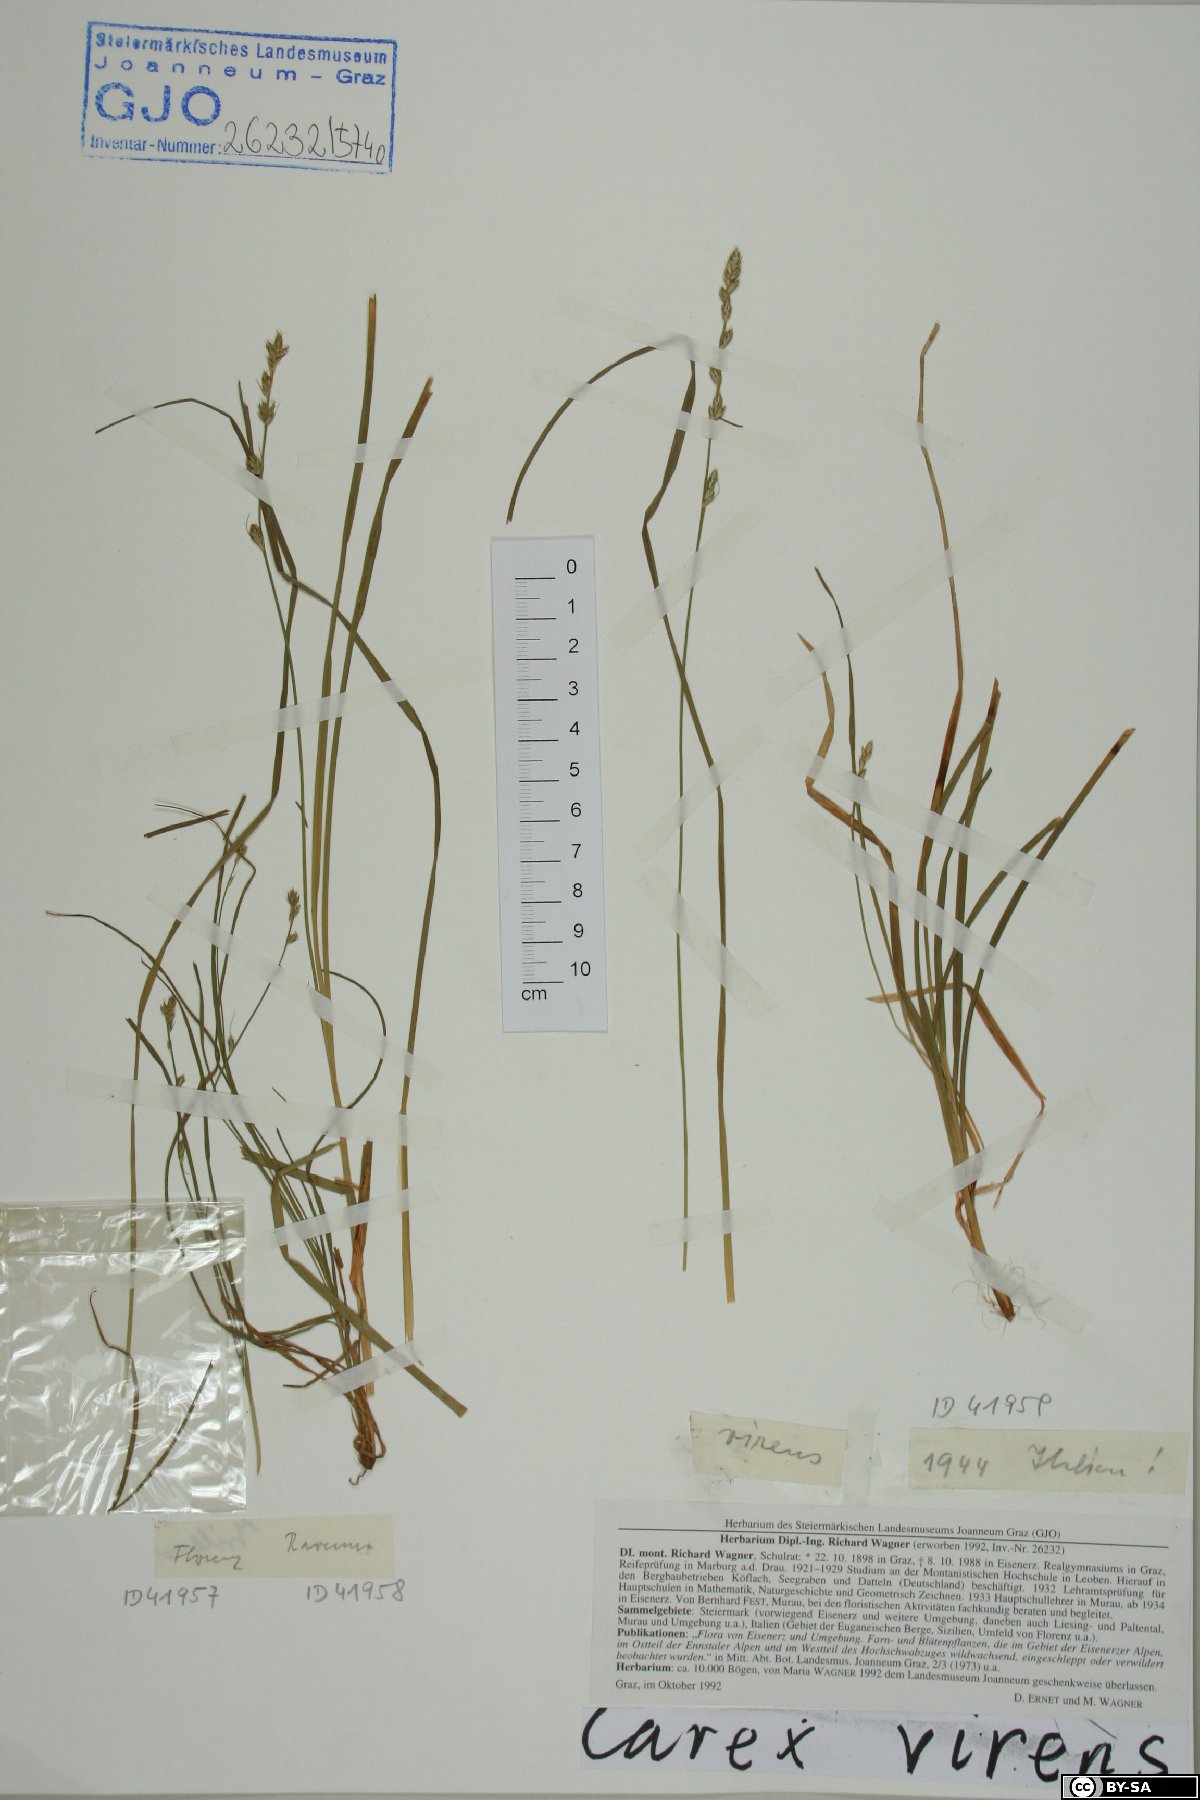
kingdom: Plantae
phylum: Tracheophyta
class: Liliopsida
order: Poales
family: Cyperaceae
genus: Carex
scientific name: Carex divulsa
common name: Grassland sedge
